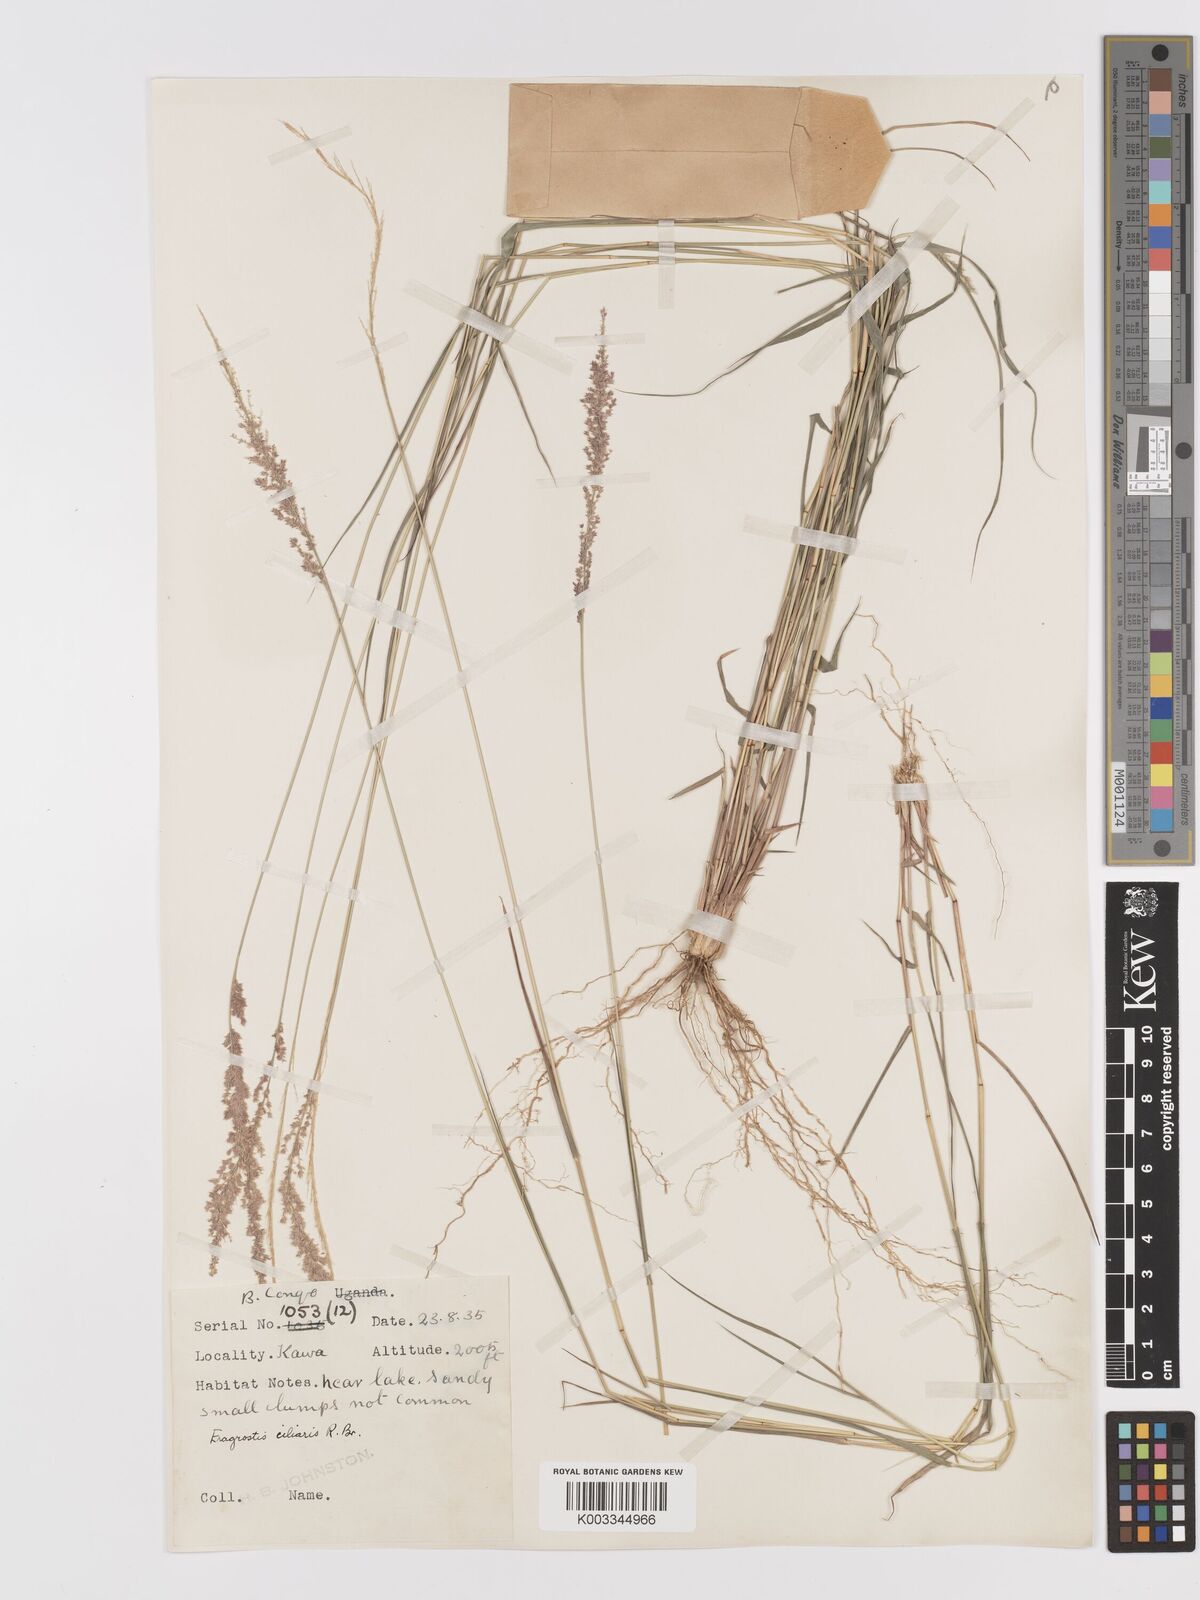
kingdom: Plantae
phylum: Tracheophyta
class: Liliopsida
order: Poales
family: Poaceae
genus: Eragrostis
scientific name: Eragrostis ciliaris
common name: Gophertail lovegrass
